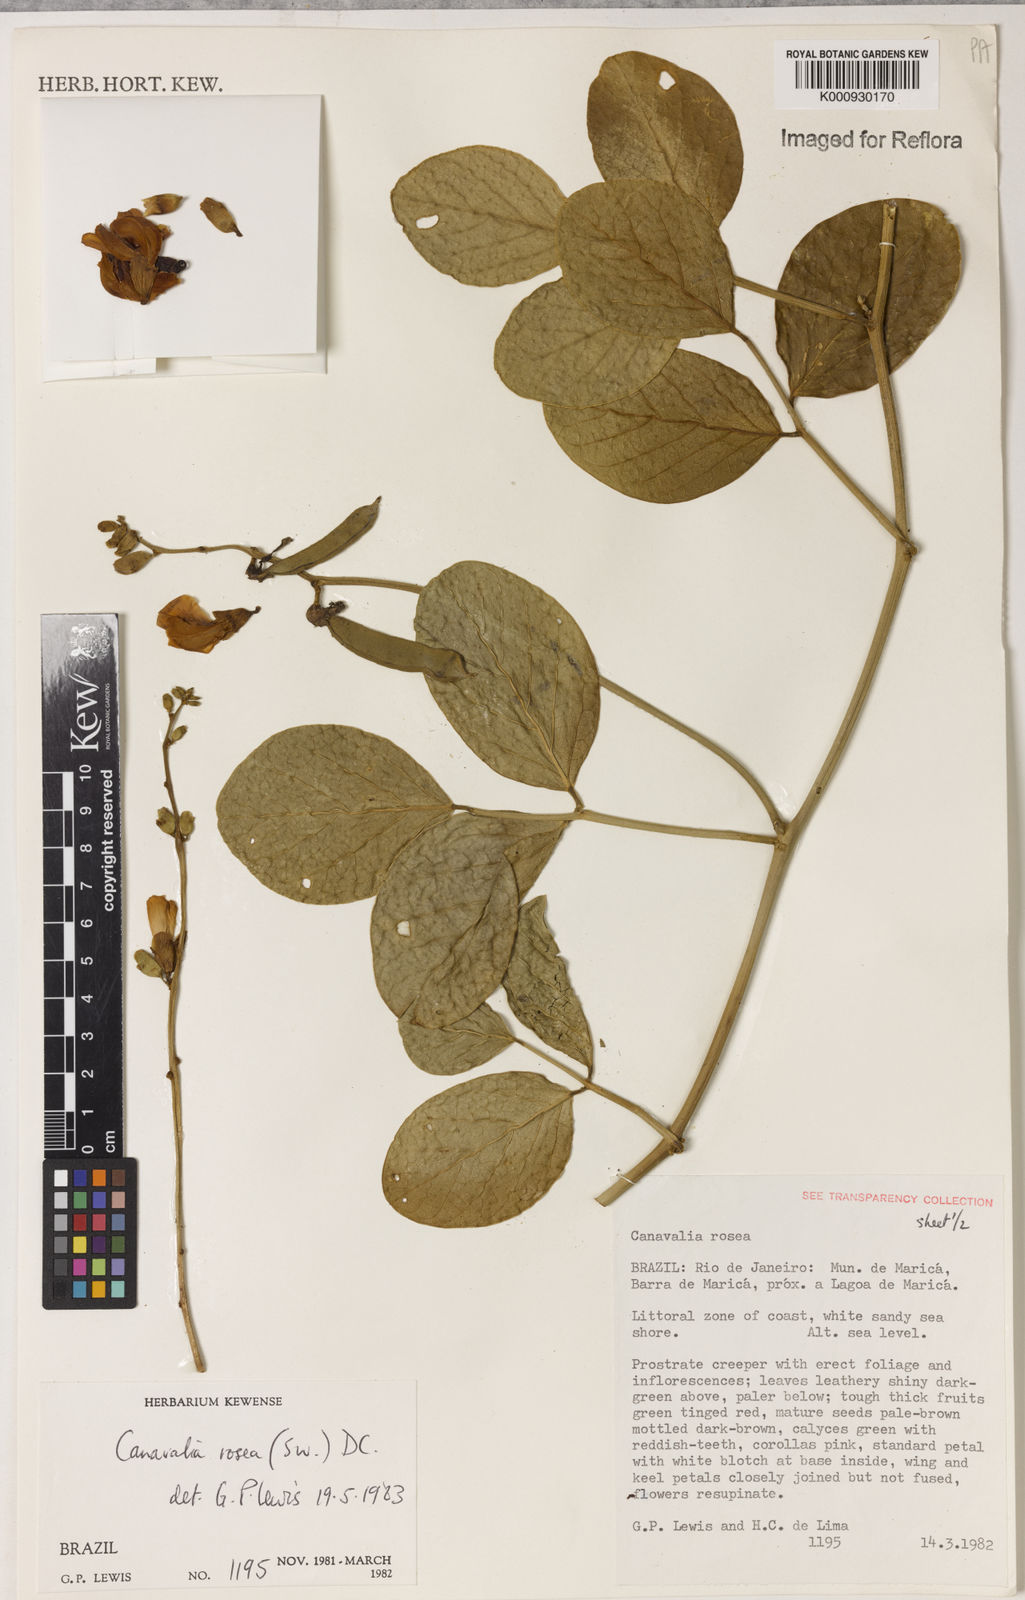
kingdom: Plantae
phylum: Tracheophyta
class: Magnoliopsida
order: Fabales
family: Fabaceae
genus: Canavalia
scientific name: Canavalia rosea
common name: Beach-bean
